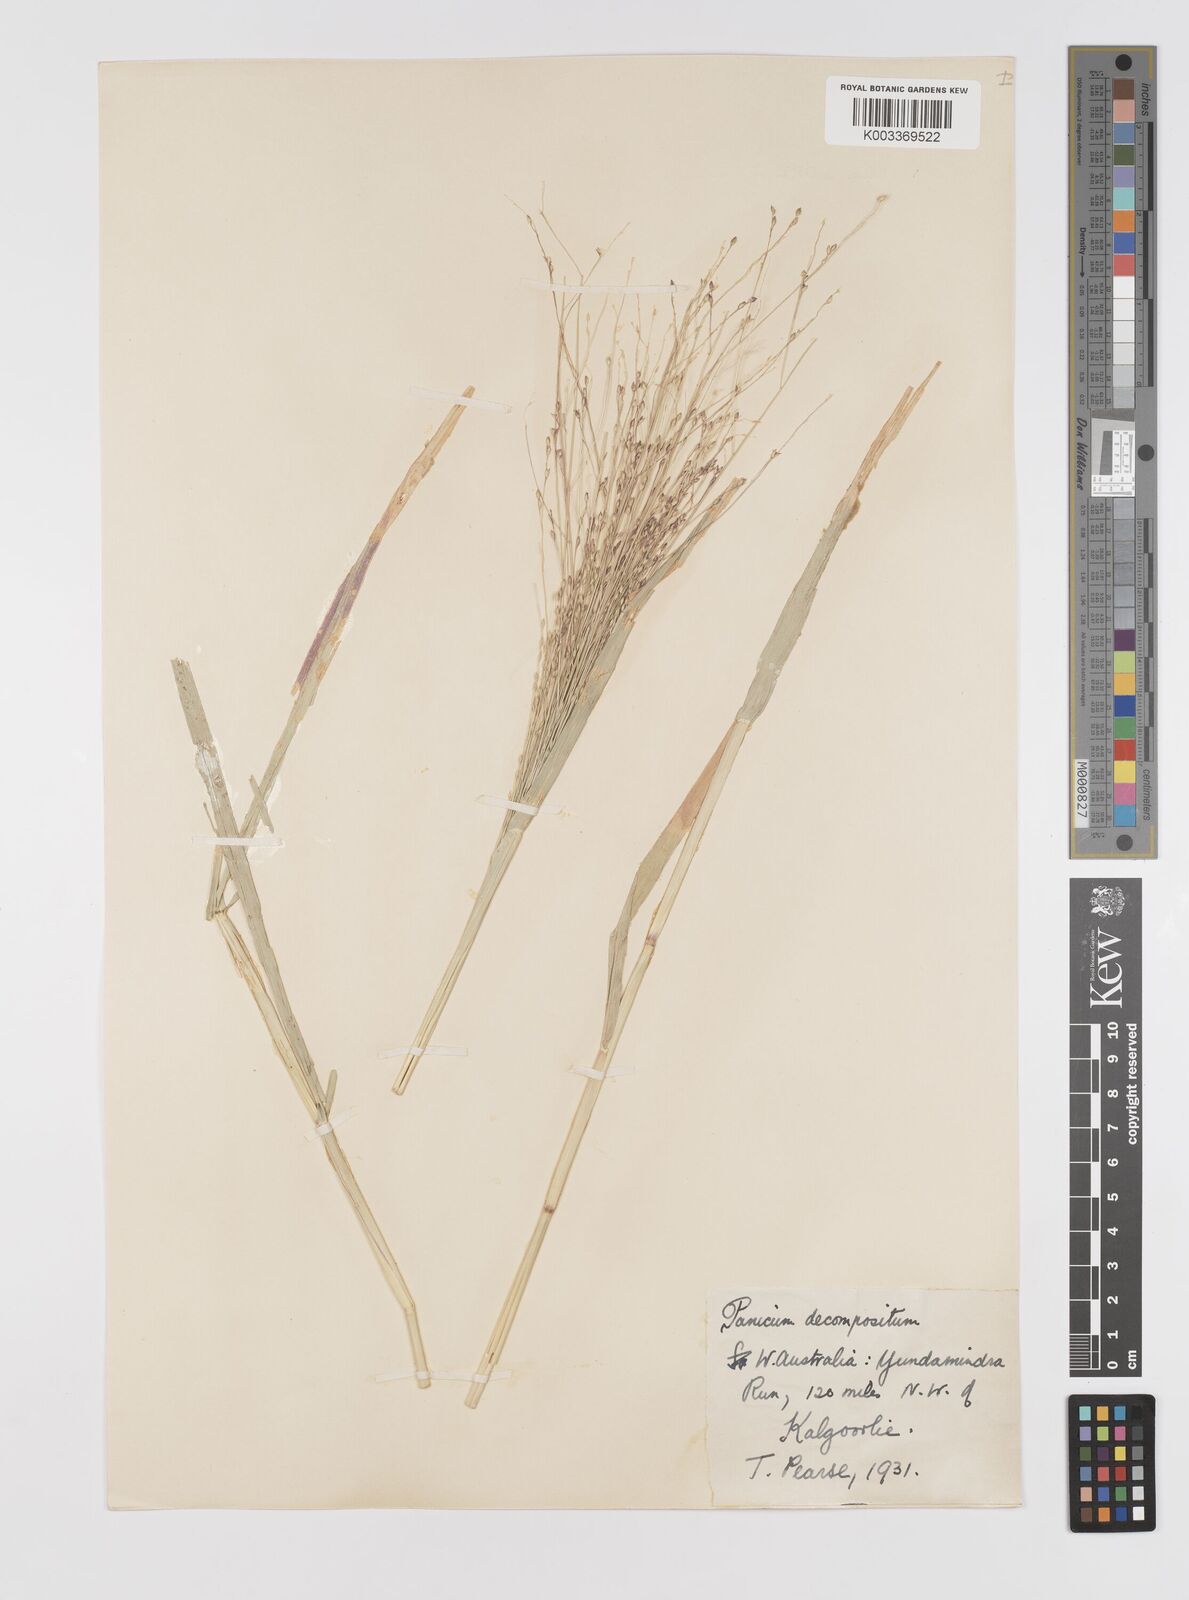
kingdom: Plantae
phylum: Tracheophyta
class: Liliopsida
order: Poales
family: Poaceae
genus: Panicum
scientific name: Panicum decompositum
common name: Australian millet
